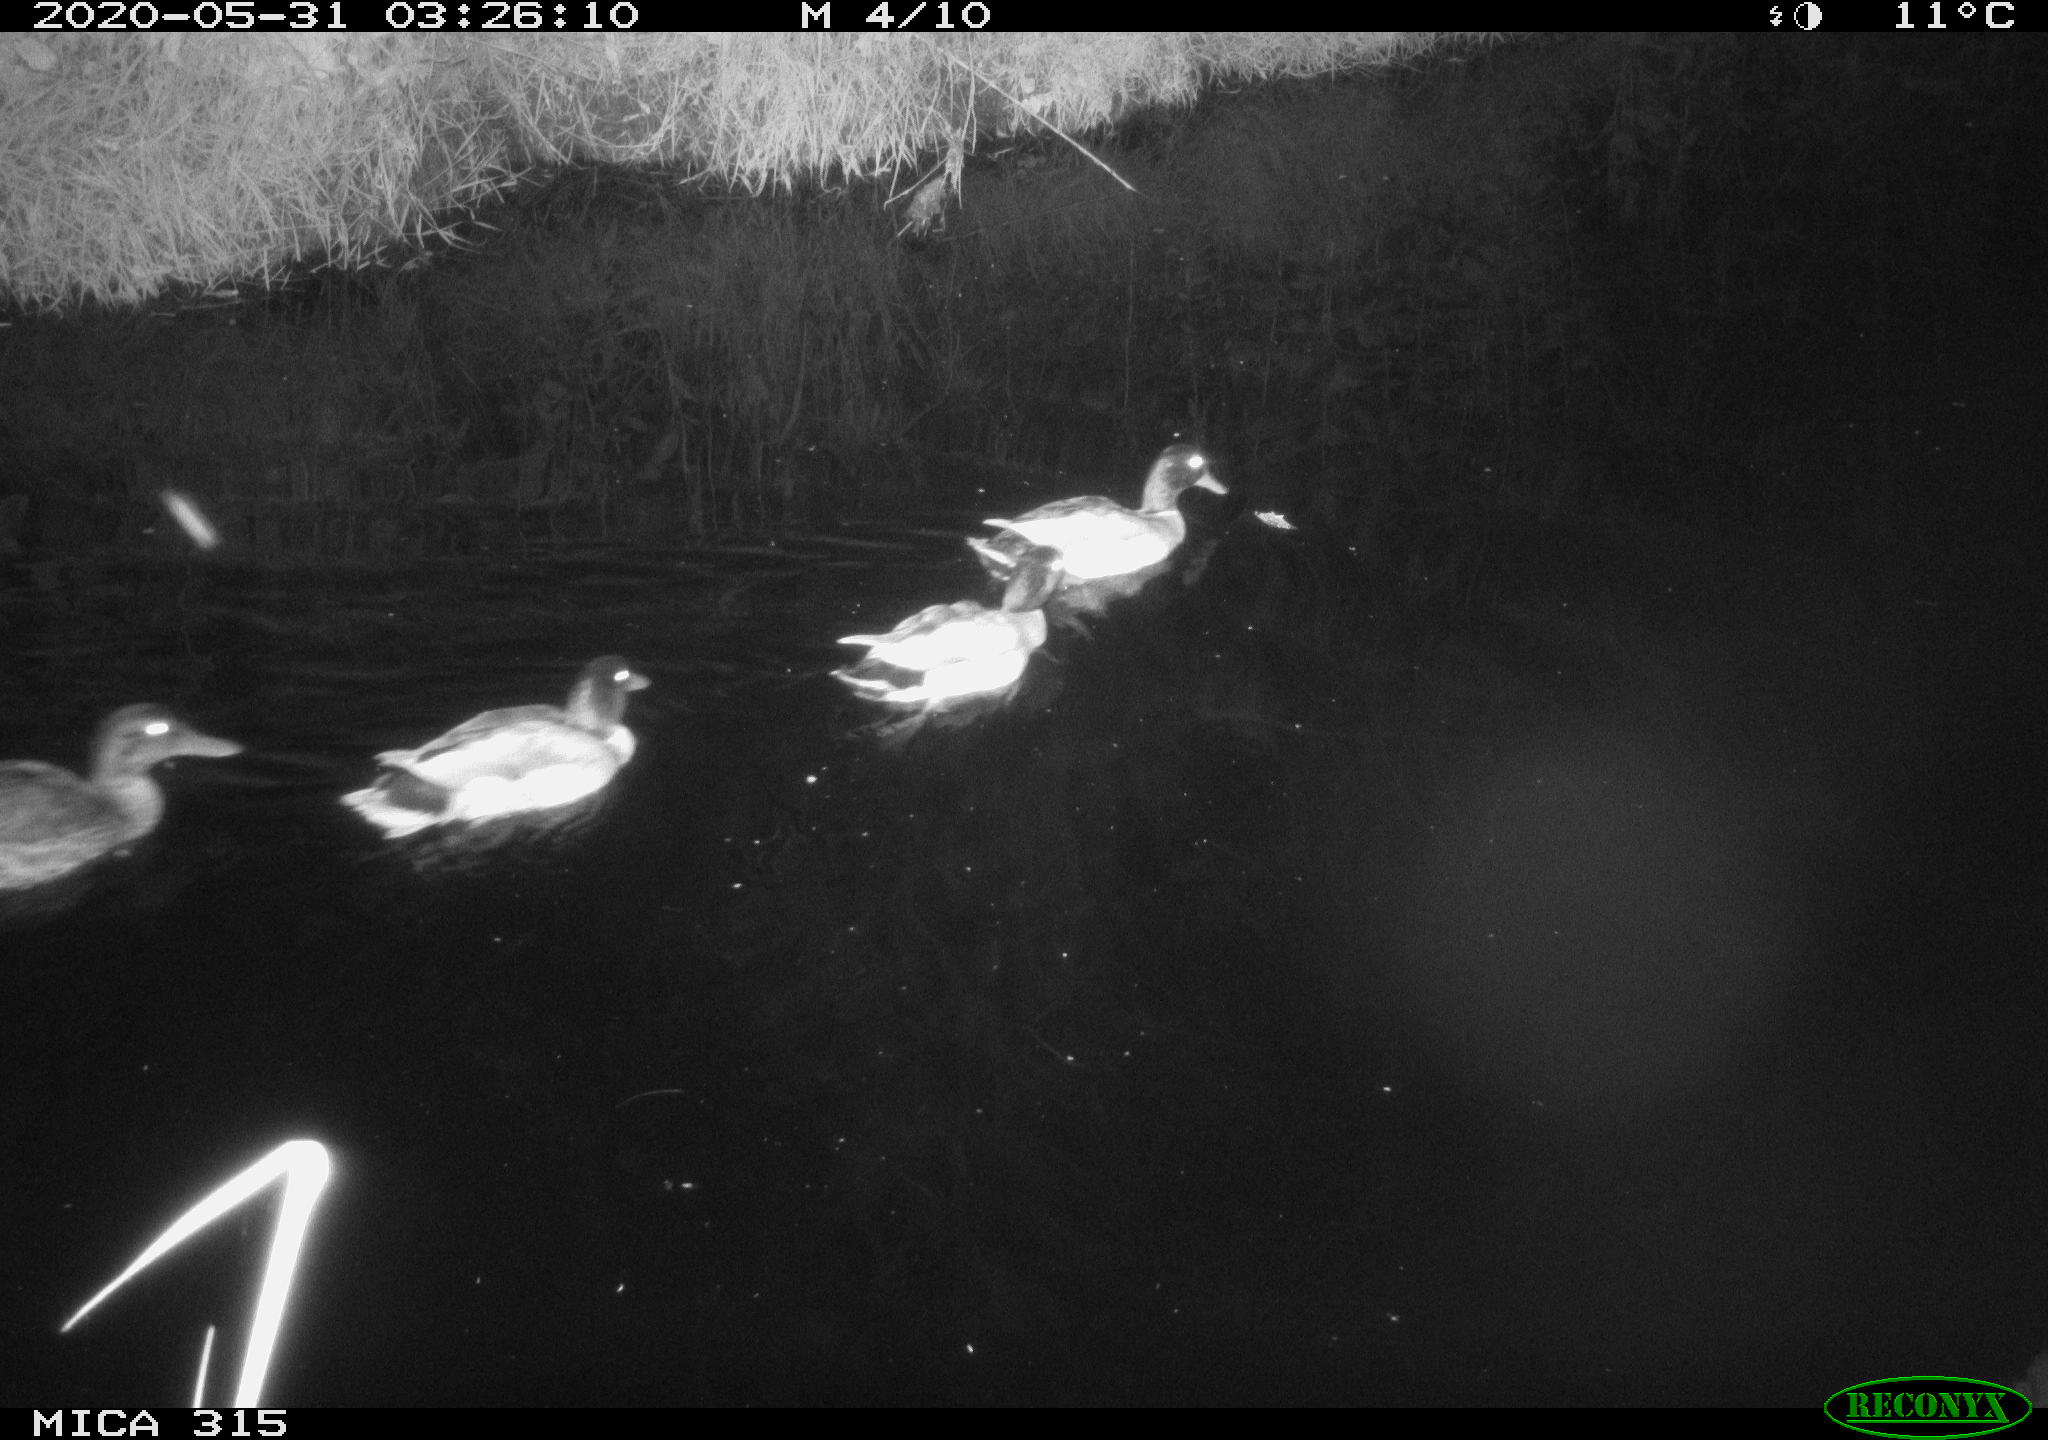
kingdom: Animalia
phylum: Chordata
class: Aves
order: Anseriformes
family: Anatidae
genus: Anas
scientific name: Anas platyrhynchos
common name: Mallard
